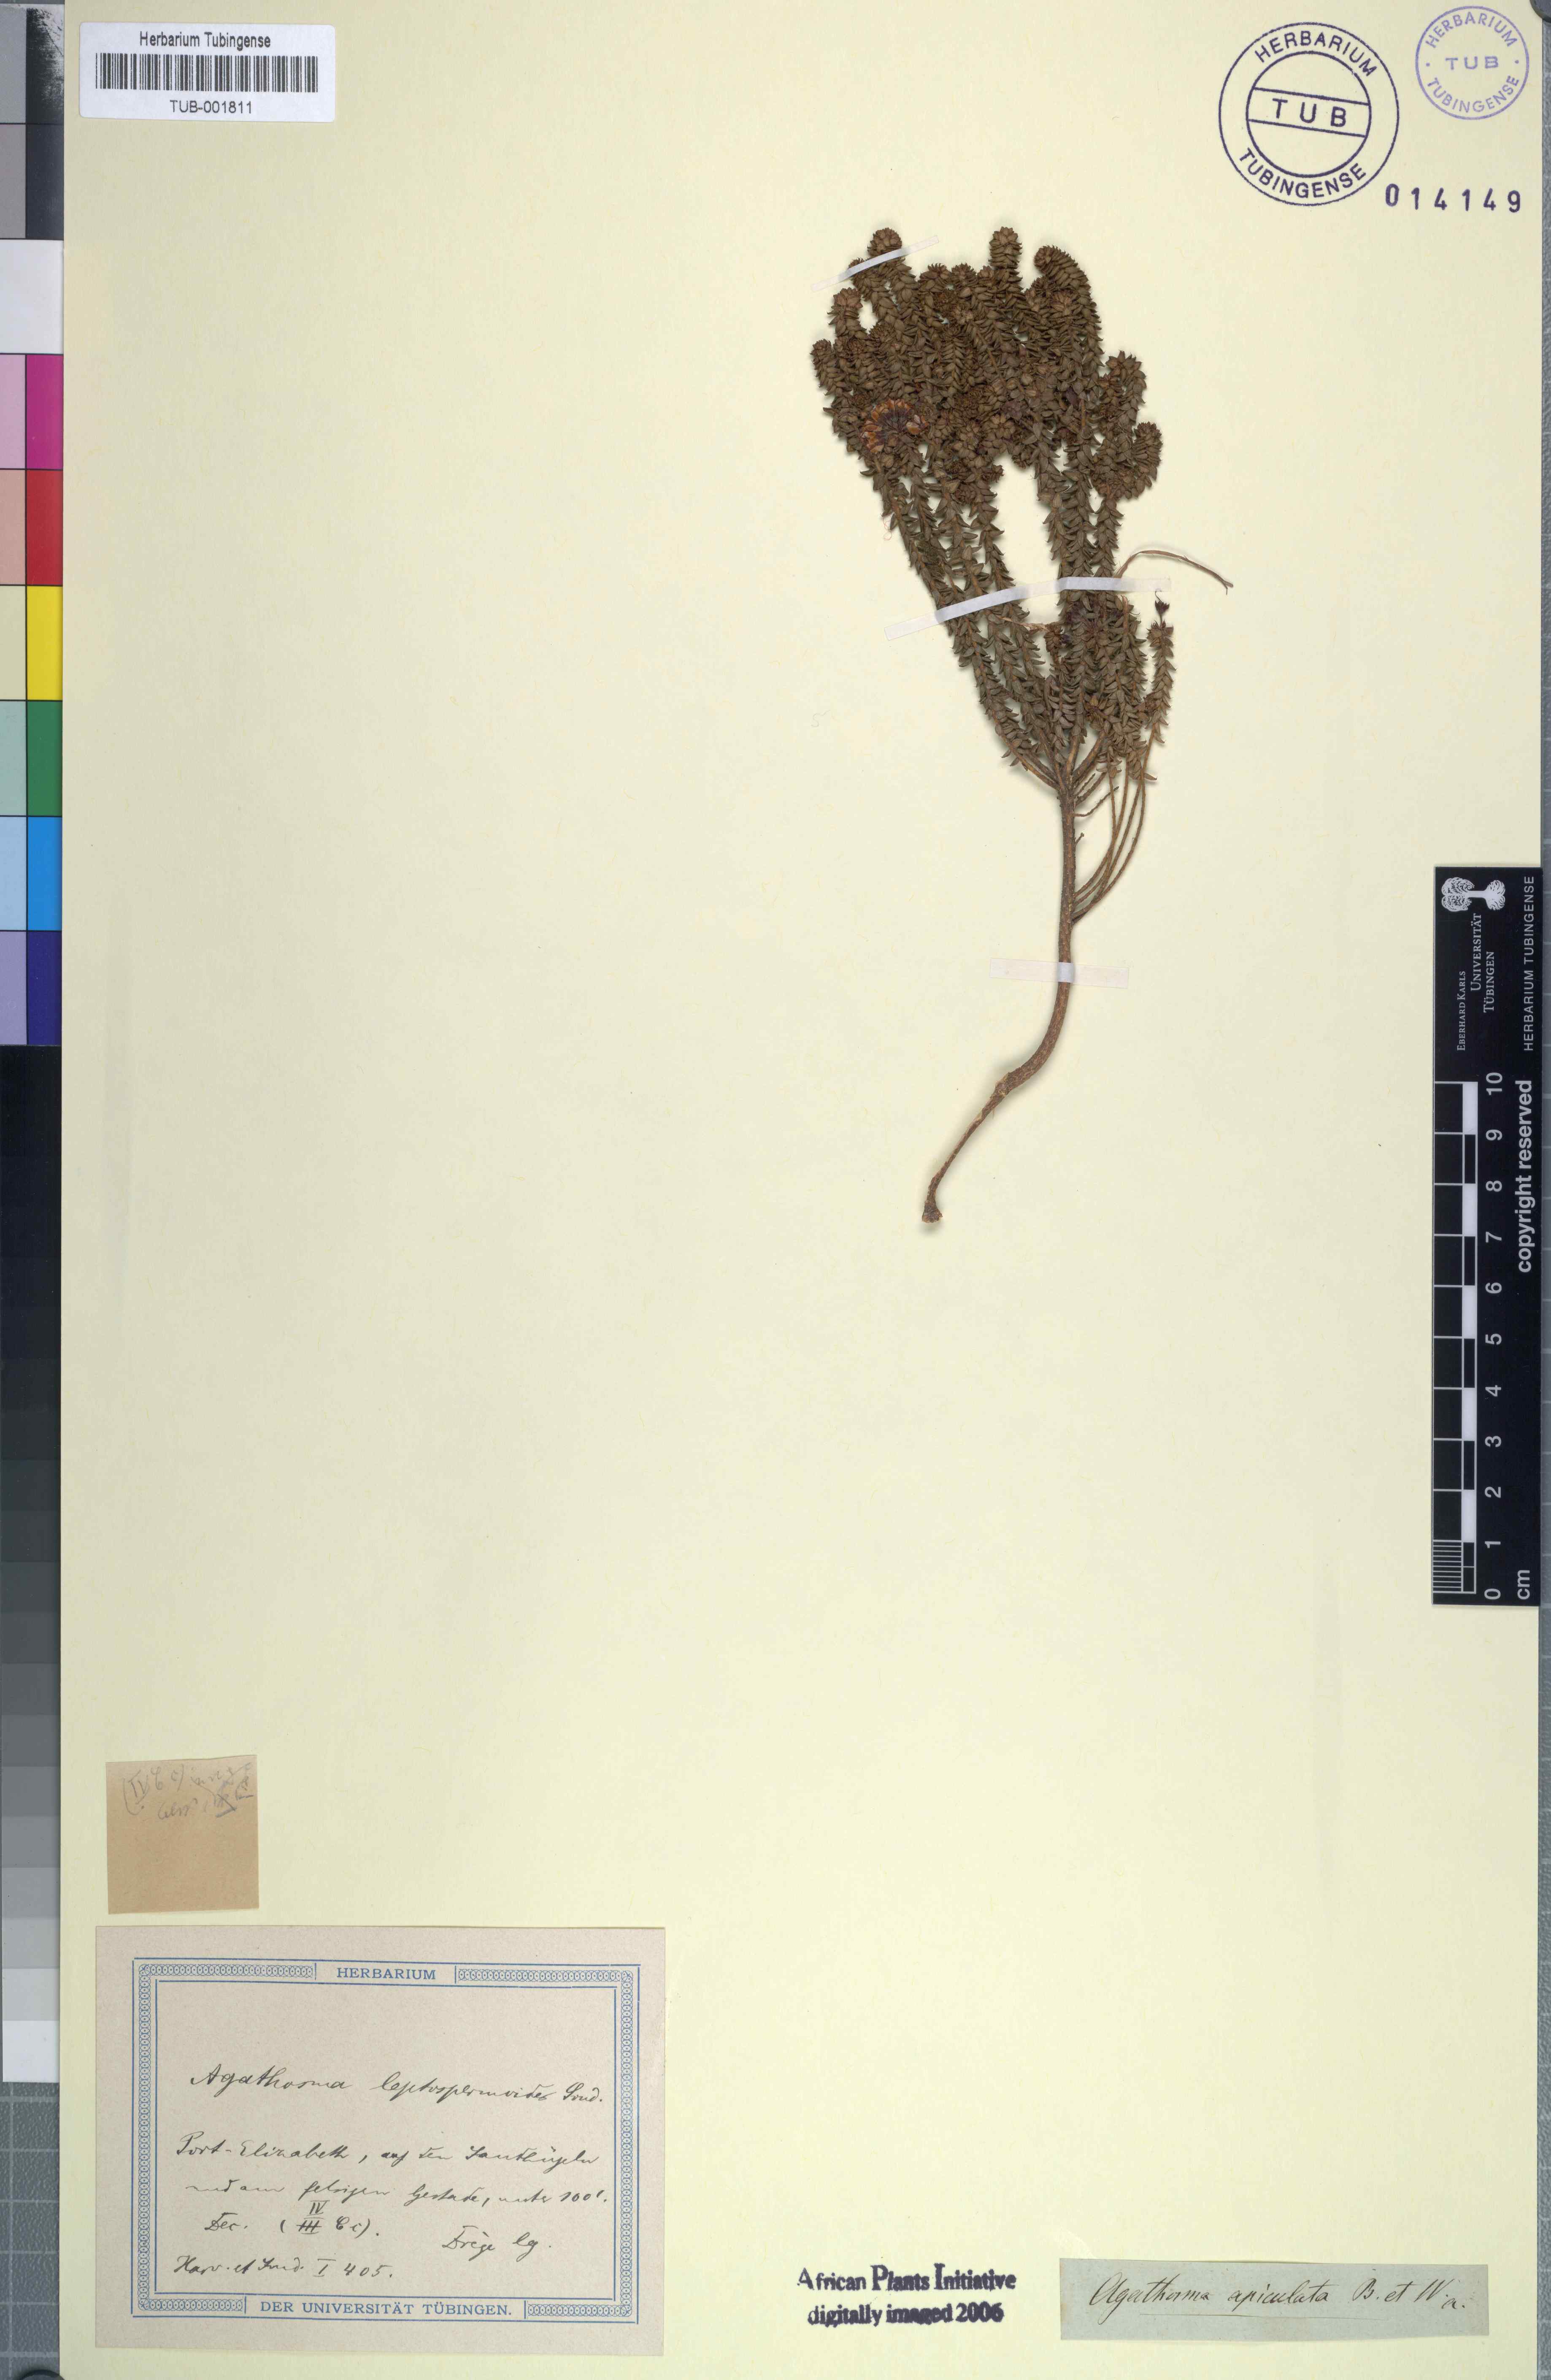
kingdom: Plantae
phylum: Tracheophyta
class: Magnoliopsida
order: Sapindales
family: Rutaceae
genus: Agathosma
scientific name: Agathosma
